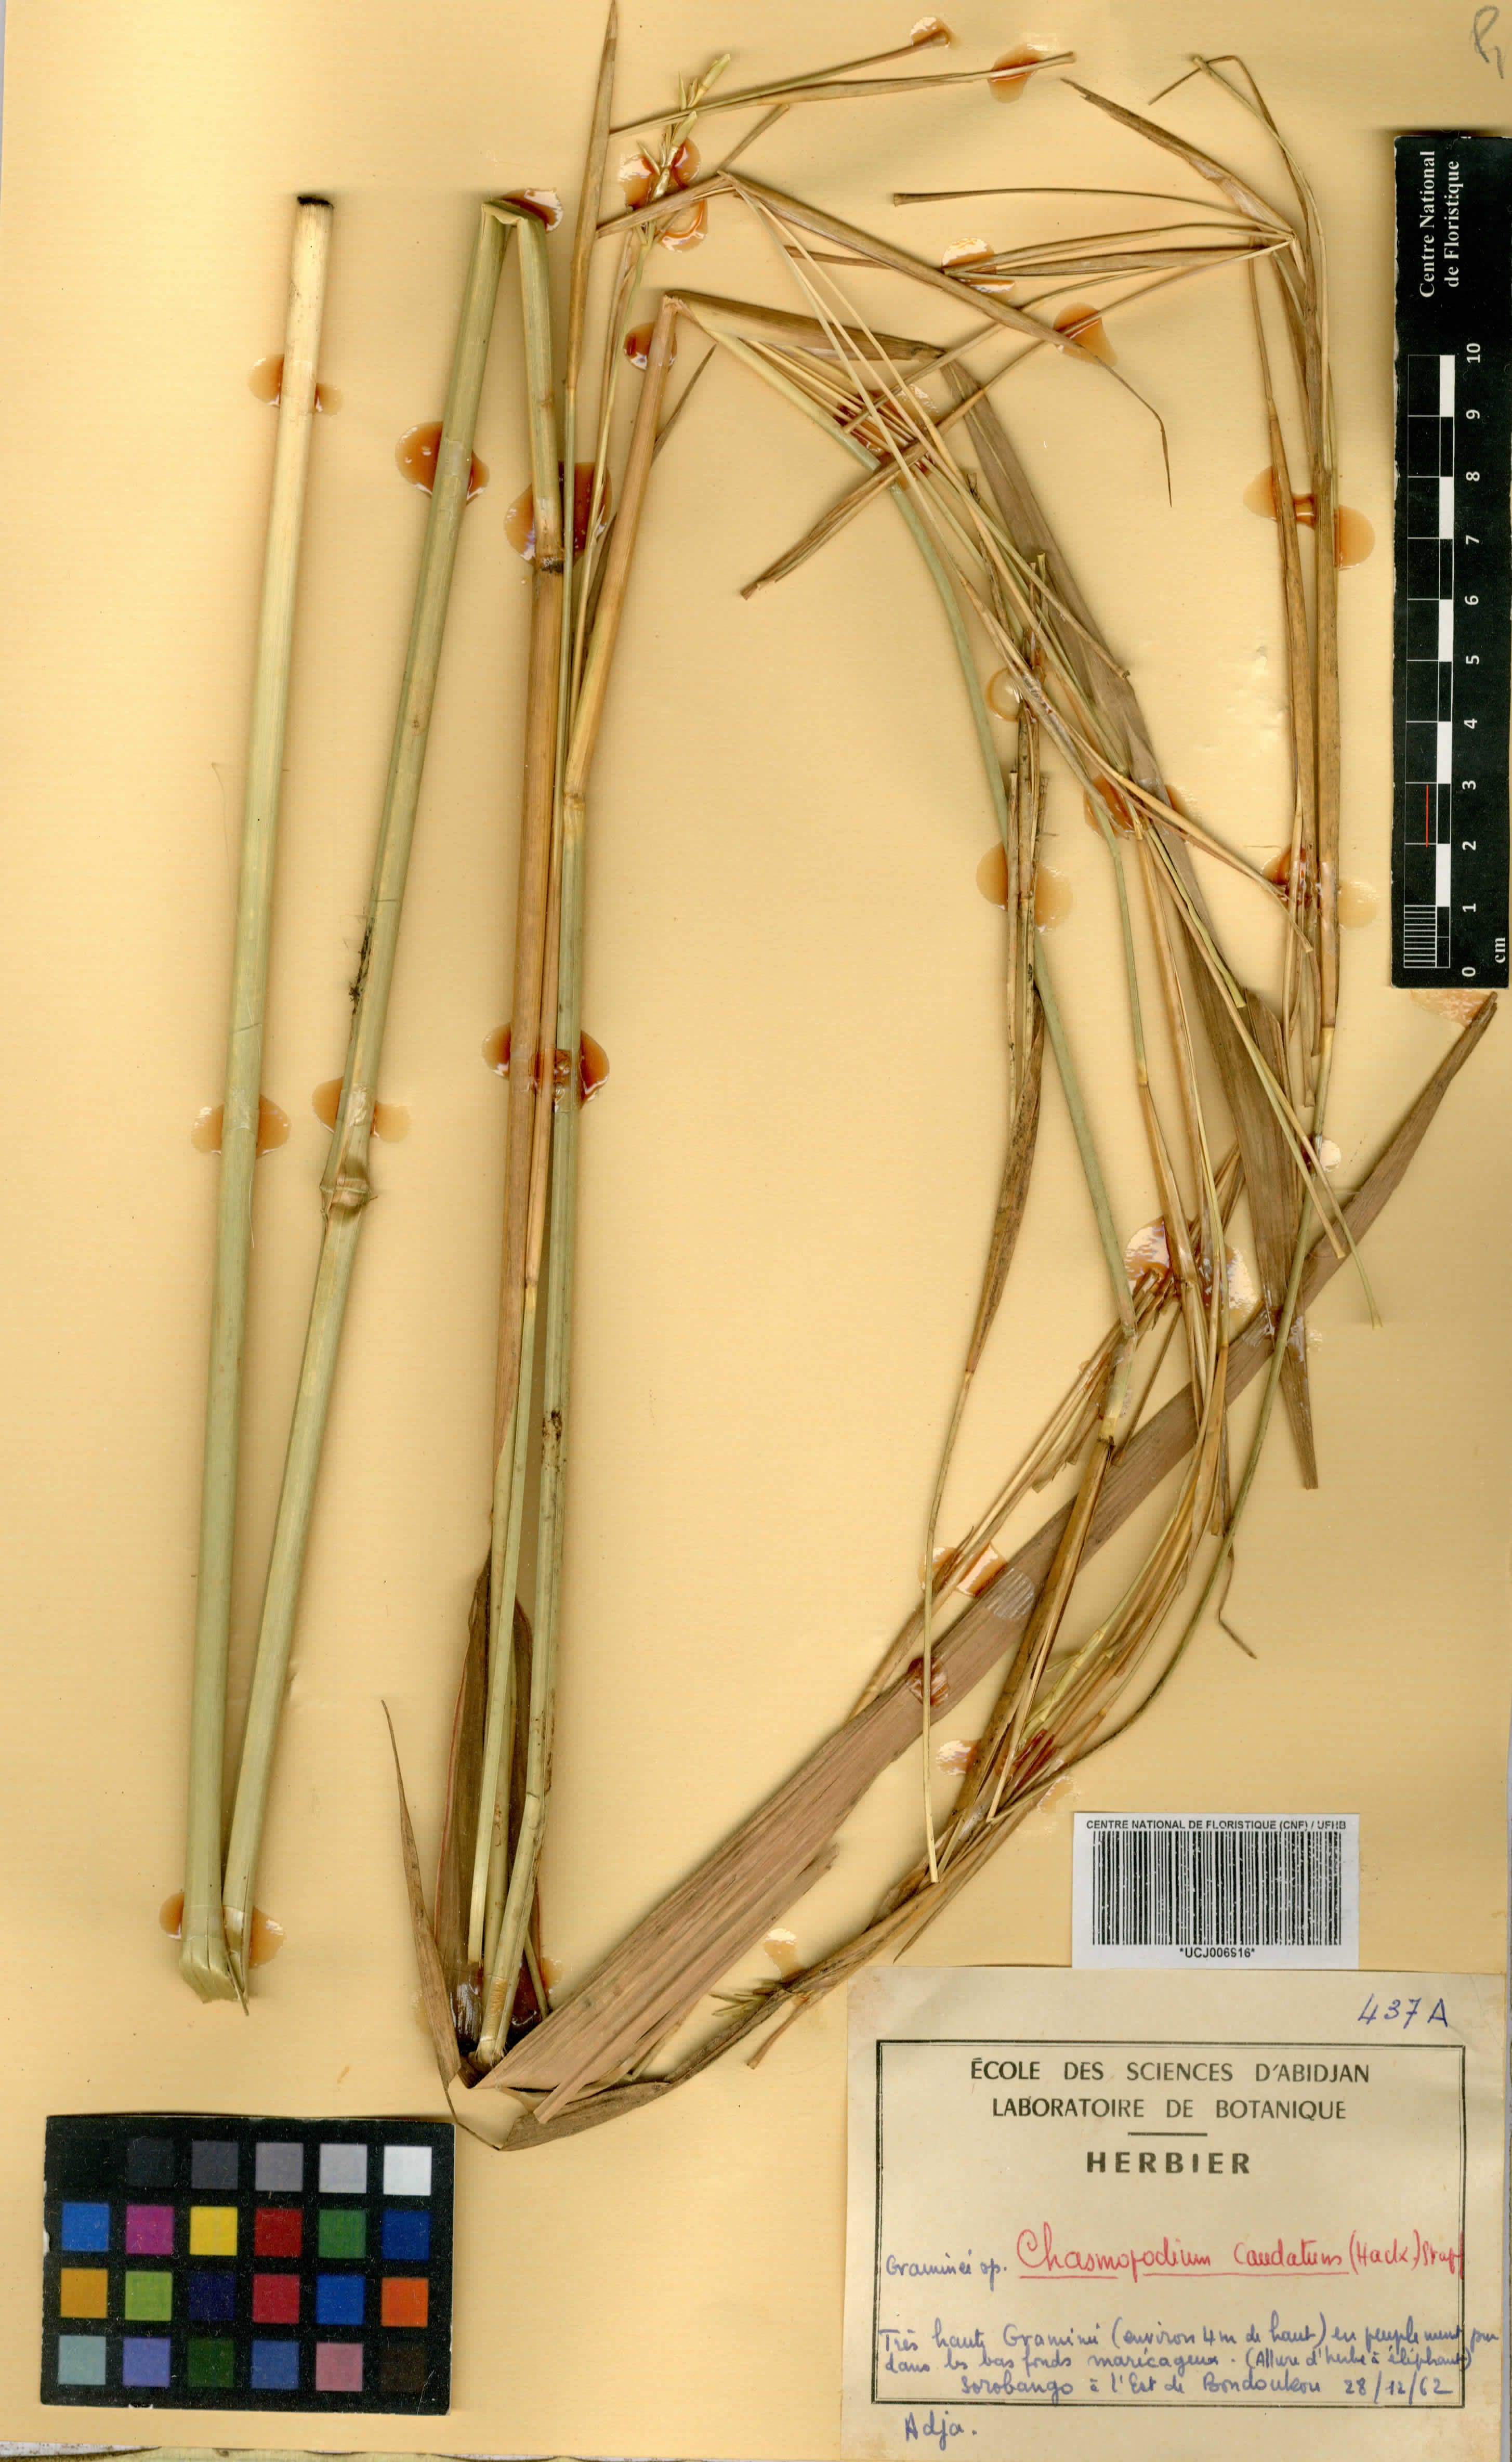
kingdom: Plantae
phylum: Tracheophyta
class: Liliopsida
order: Poales
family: Poaceae
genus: Chasmopodium
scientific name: Chasmopodium caudatum
